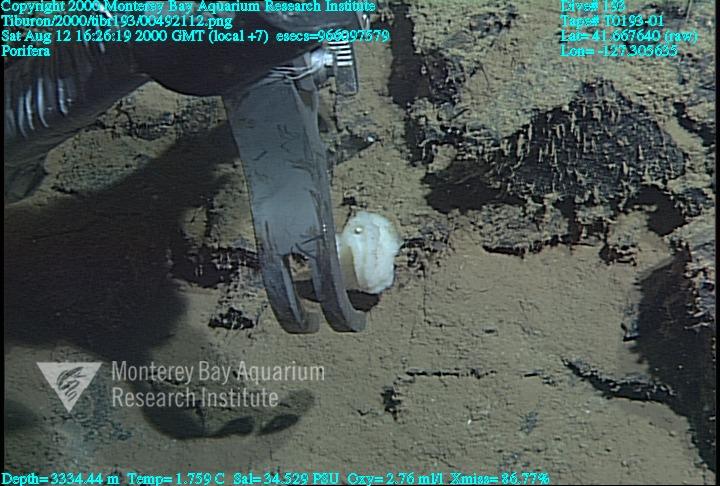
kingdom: Animalia
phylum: Porifera
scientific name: Porifera
